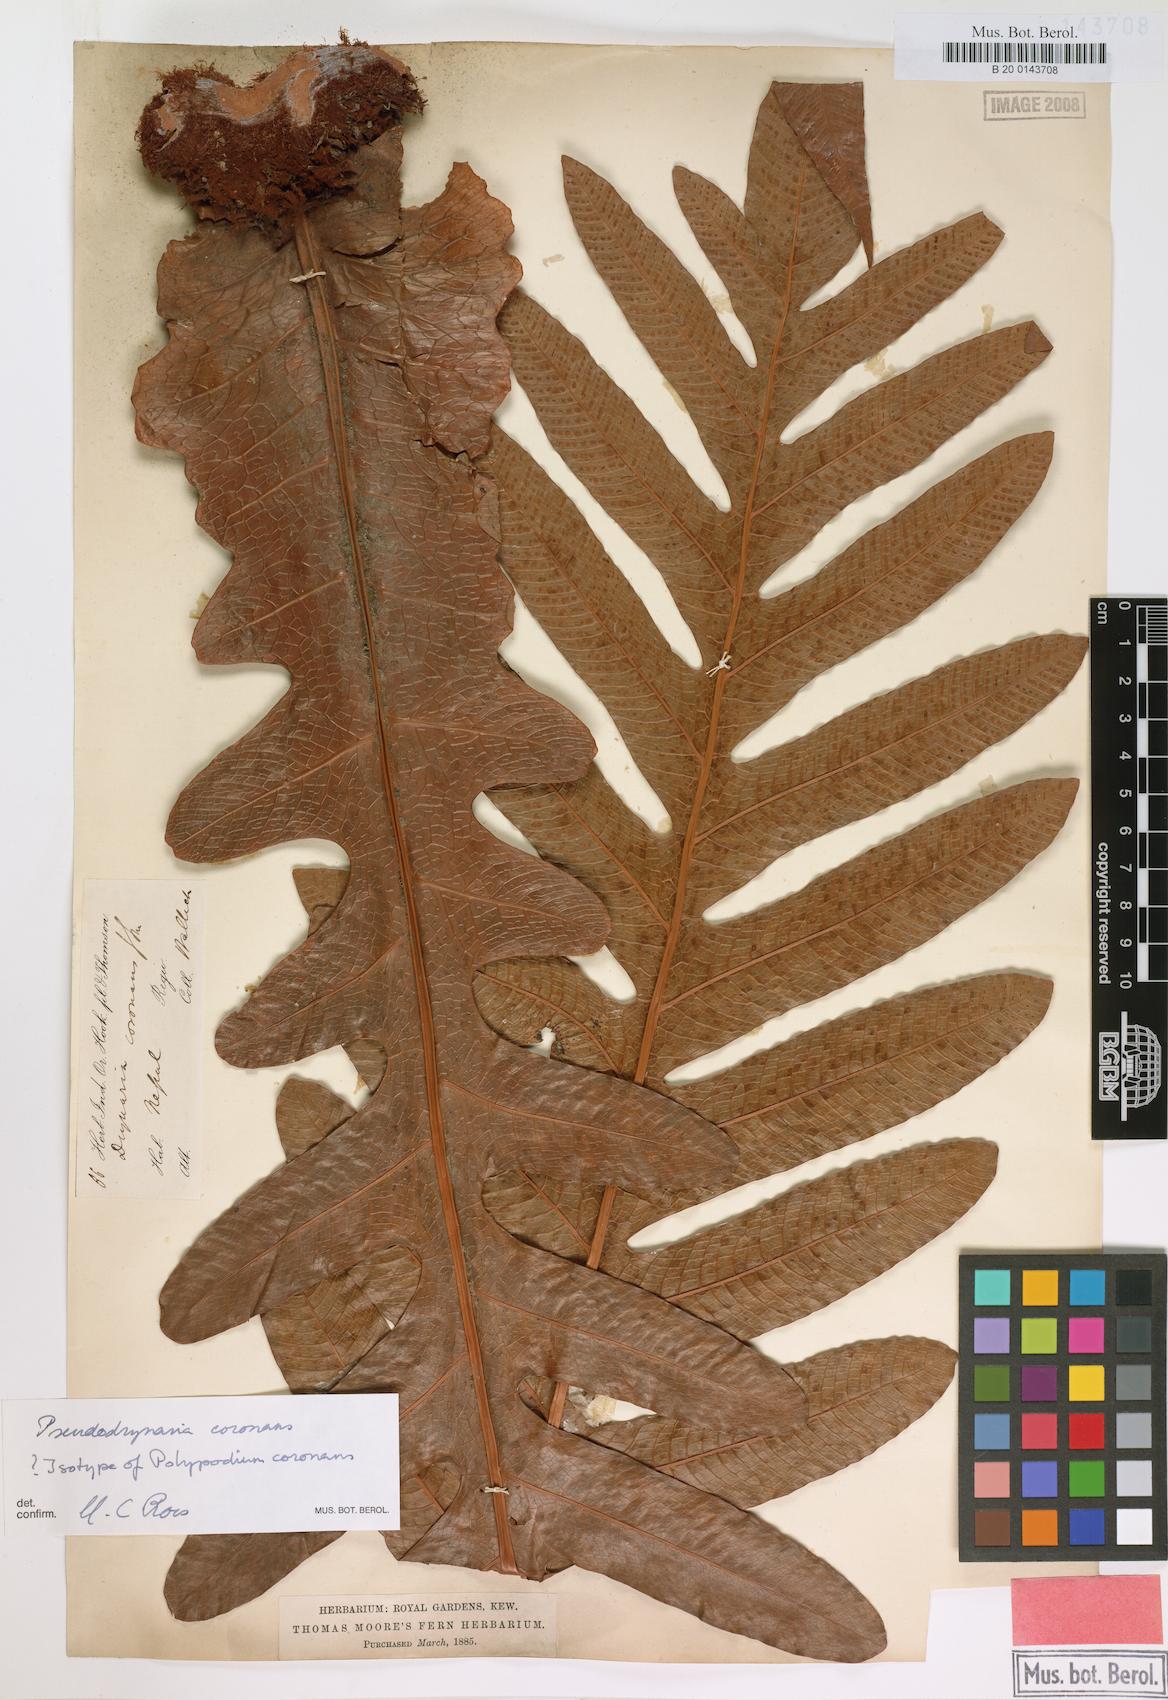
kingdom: Plantae
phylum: Tracheophyta
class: Polypodiopsida
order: Polypodiales
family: Polypodiaceae
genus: Drynaria
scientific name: Drynaria coronans
